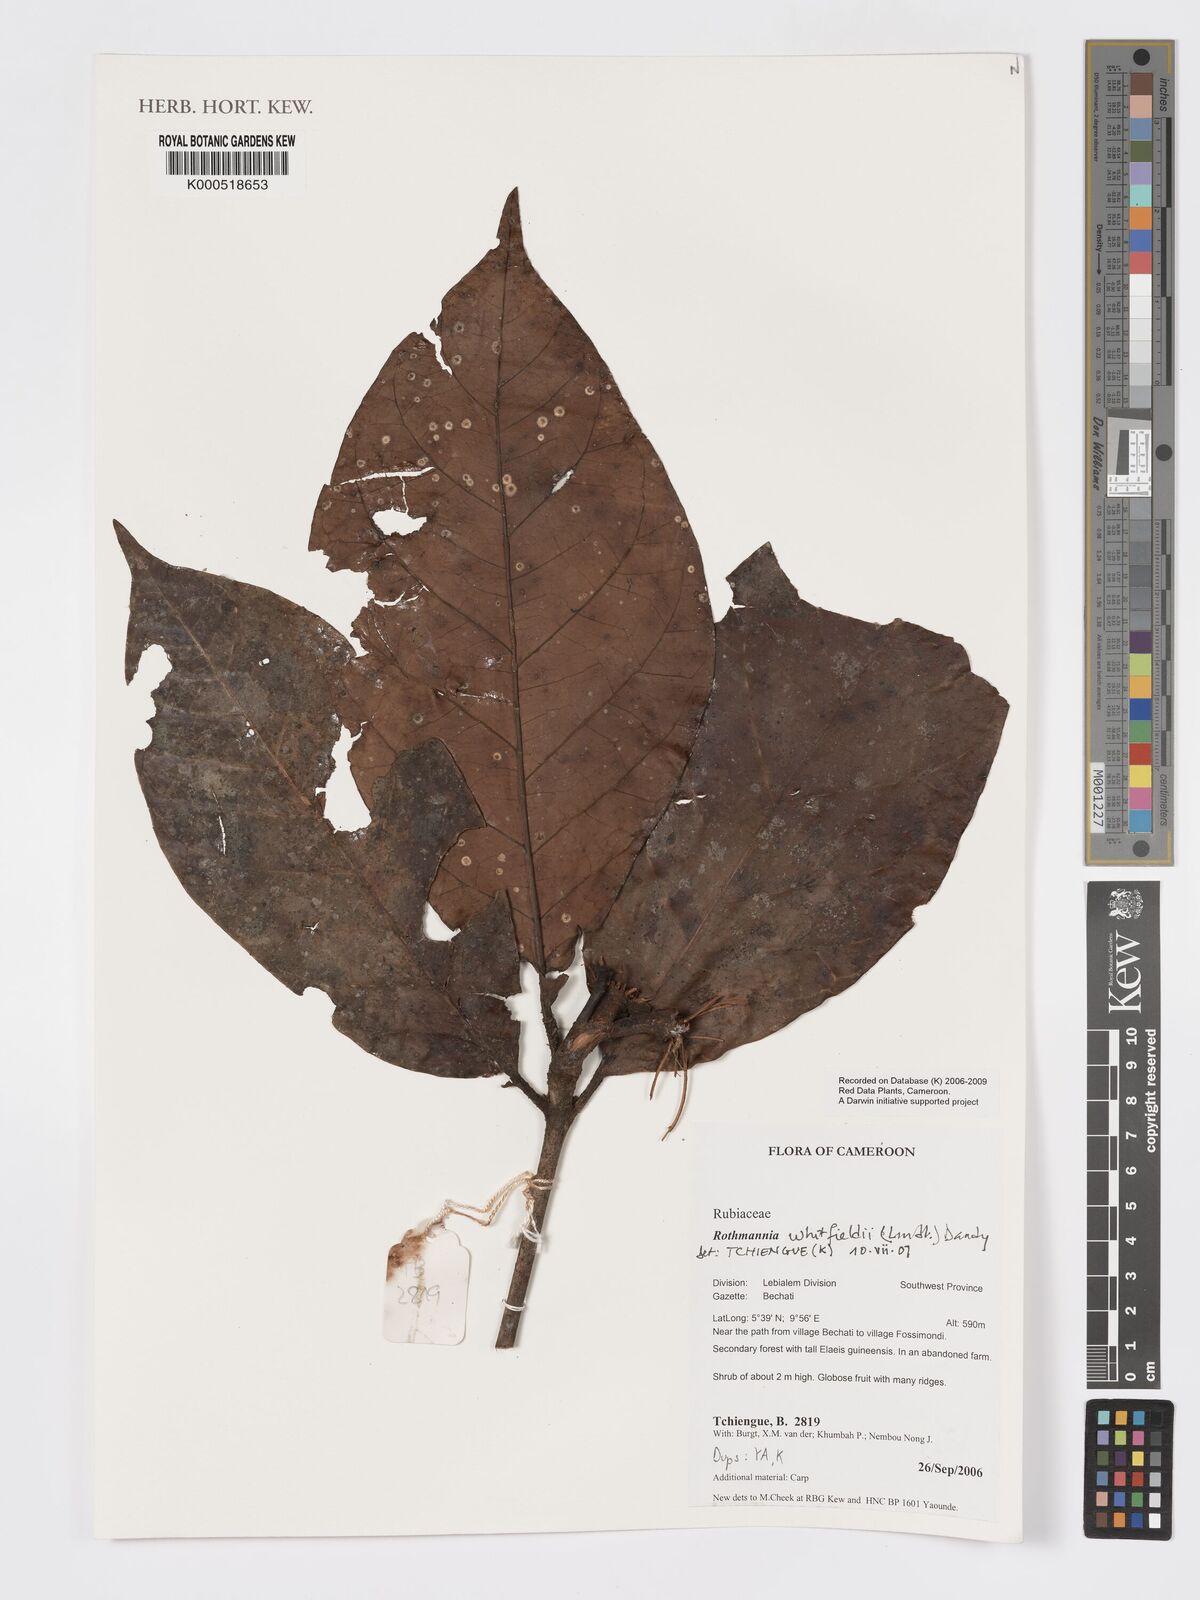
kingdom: Plantae
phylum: Tracheophyta
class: Magnoliopsida
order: Gentianales
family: Rubiaceae
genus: Rothmannia
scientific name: Rothmannia whitfieldii
